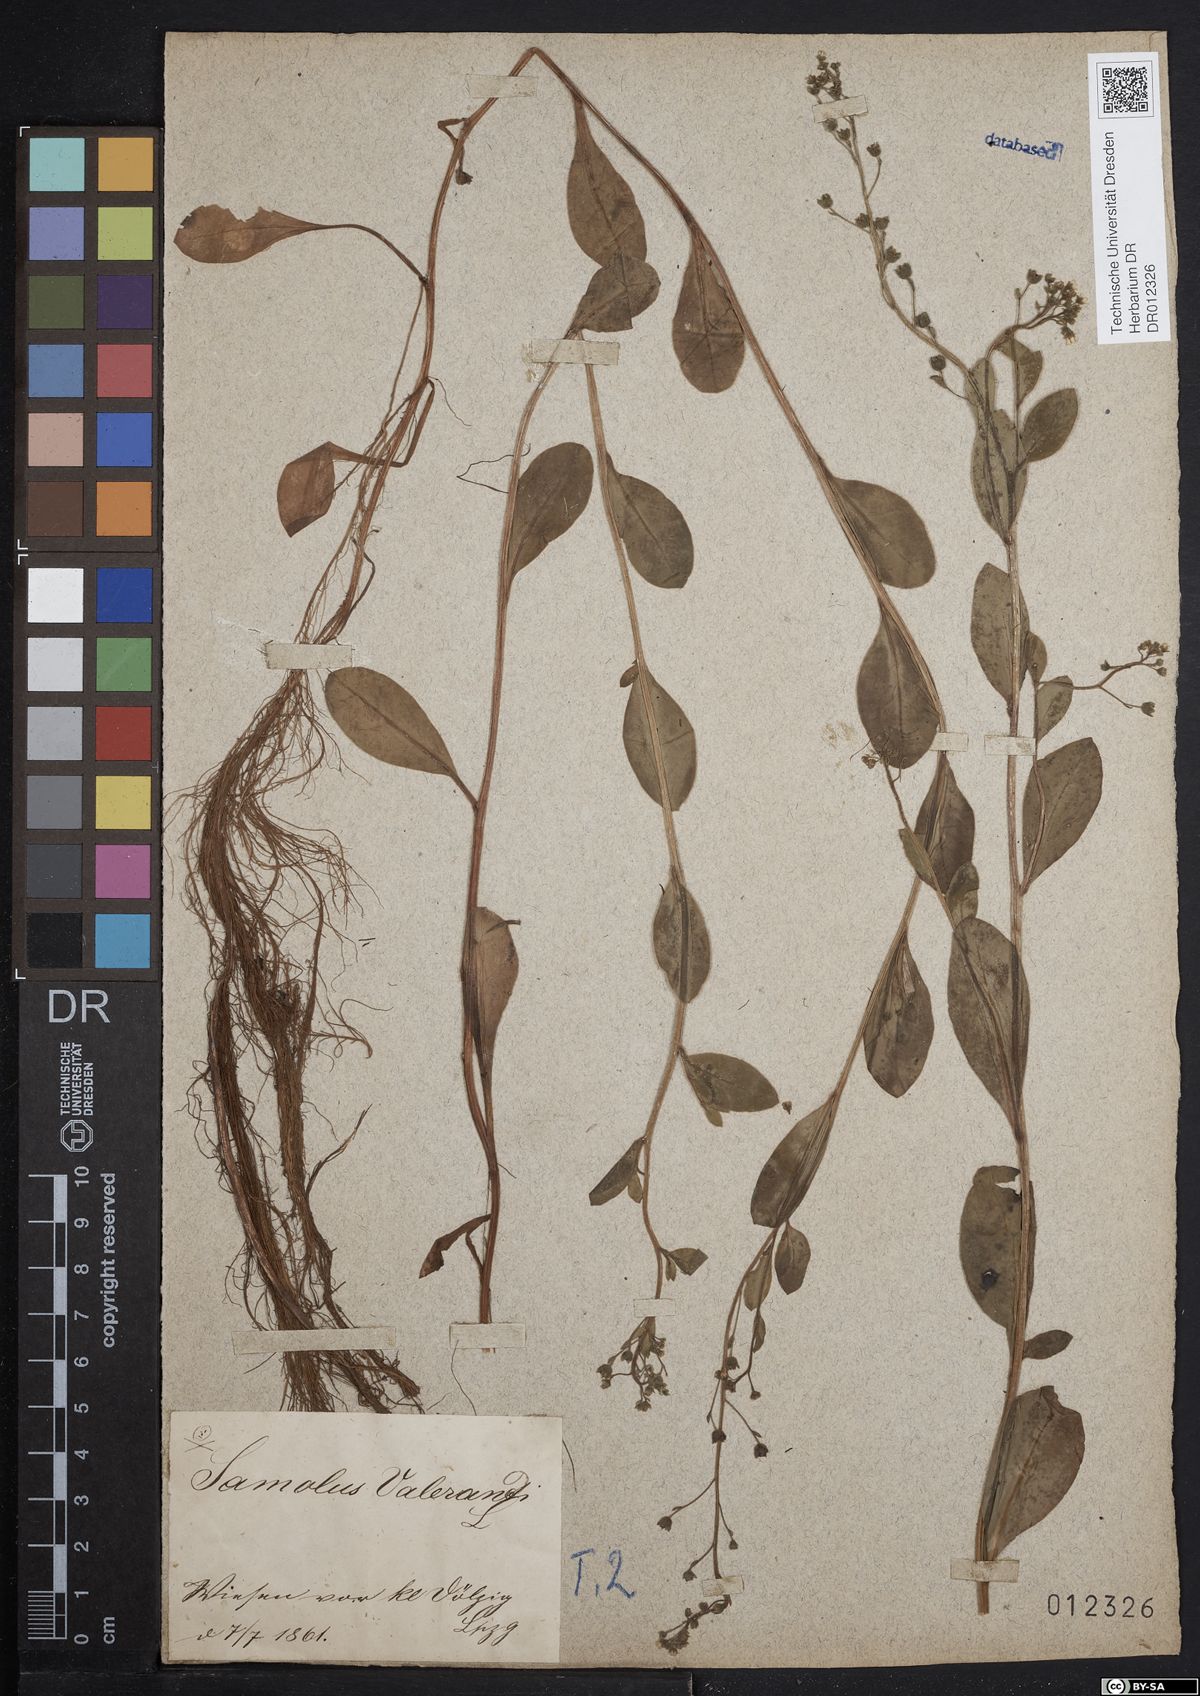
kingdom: Plantae
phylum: Tracheophyta
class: Magnoliopsida
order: Ericales
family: Primulaceae
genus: Samolus
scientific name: Samolus valerandi
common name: Brookweed
